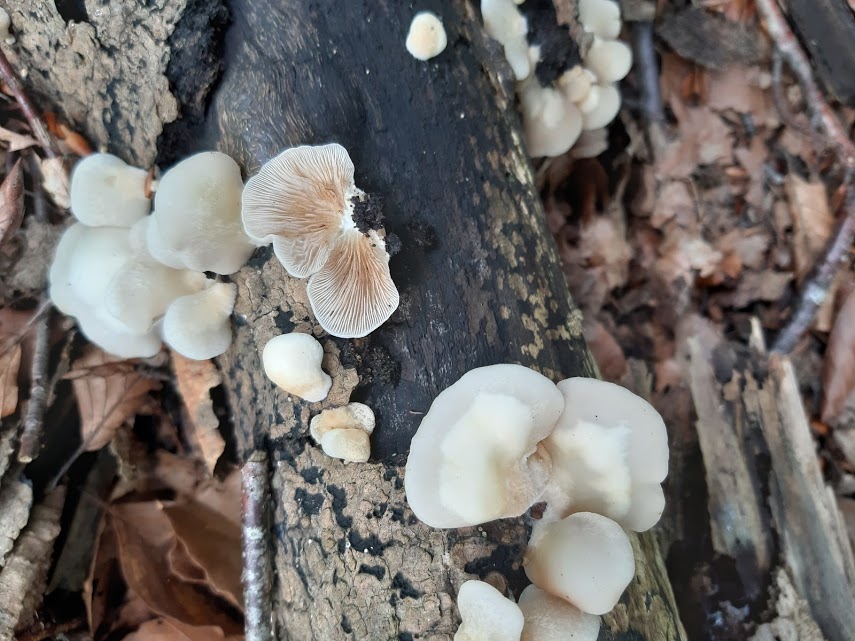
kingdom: Fungi
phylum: Basidiomycota
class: Agaricomycetes
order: Agaricales
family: Crepidotaceae
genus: Crepidotus
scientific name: Crepidotus mollis
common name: blød muslingesvamp
